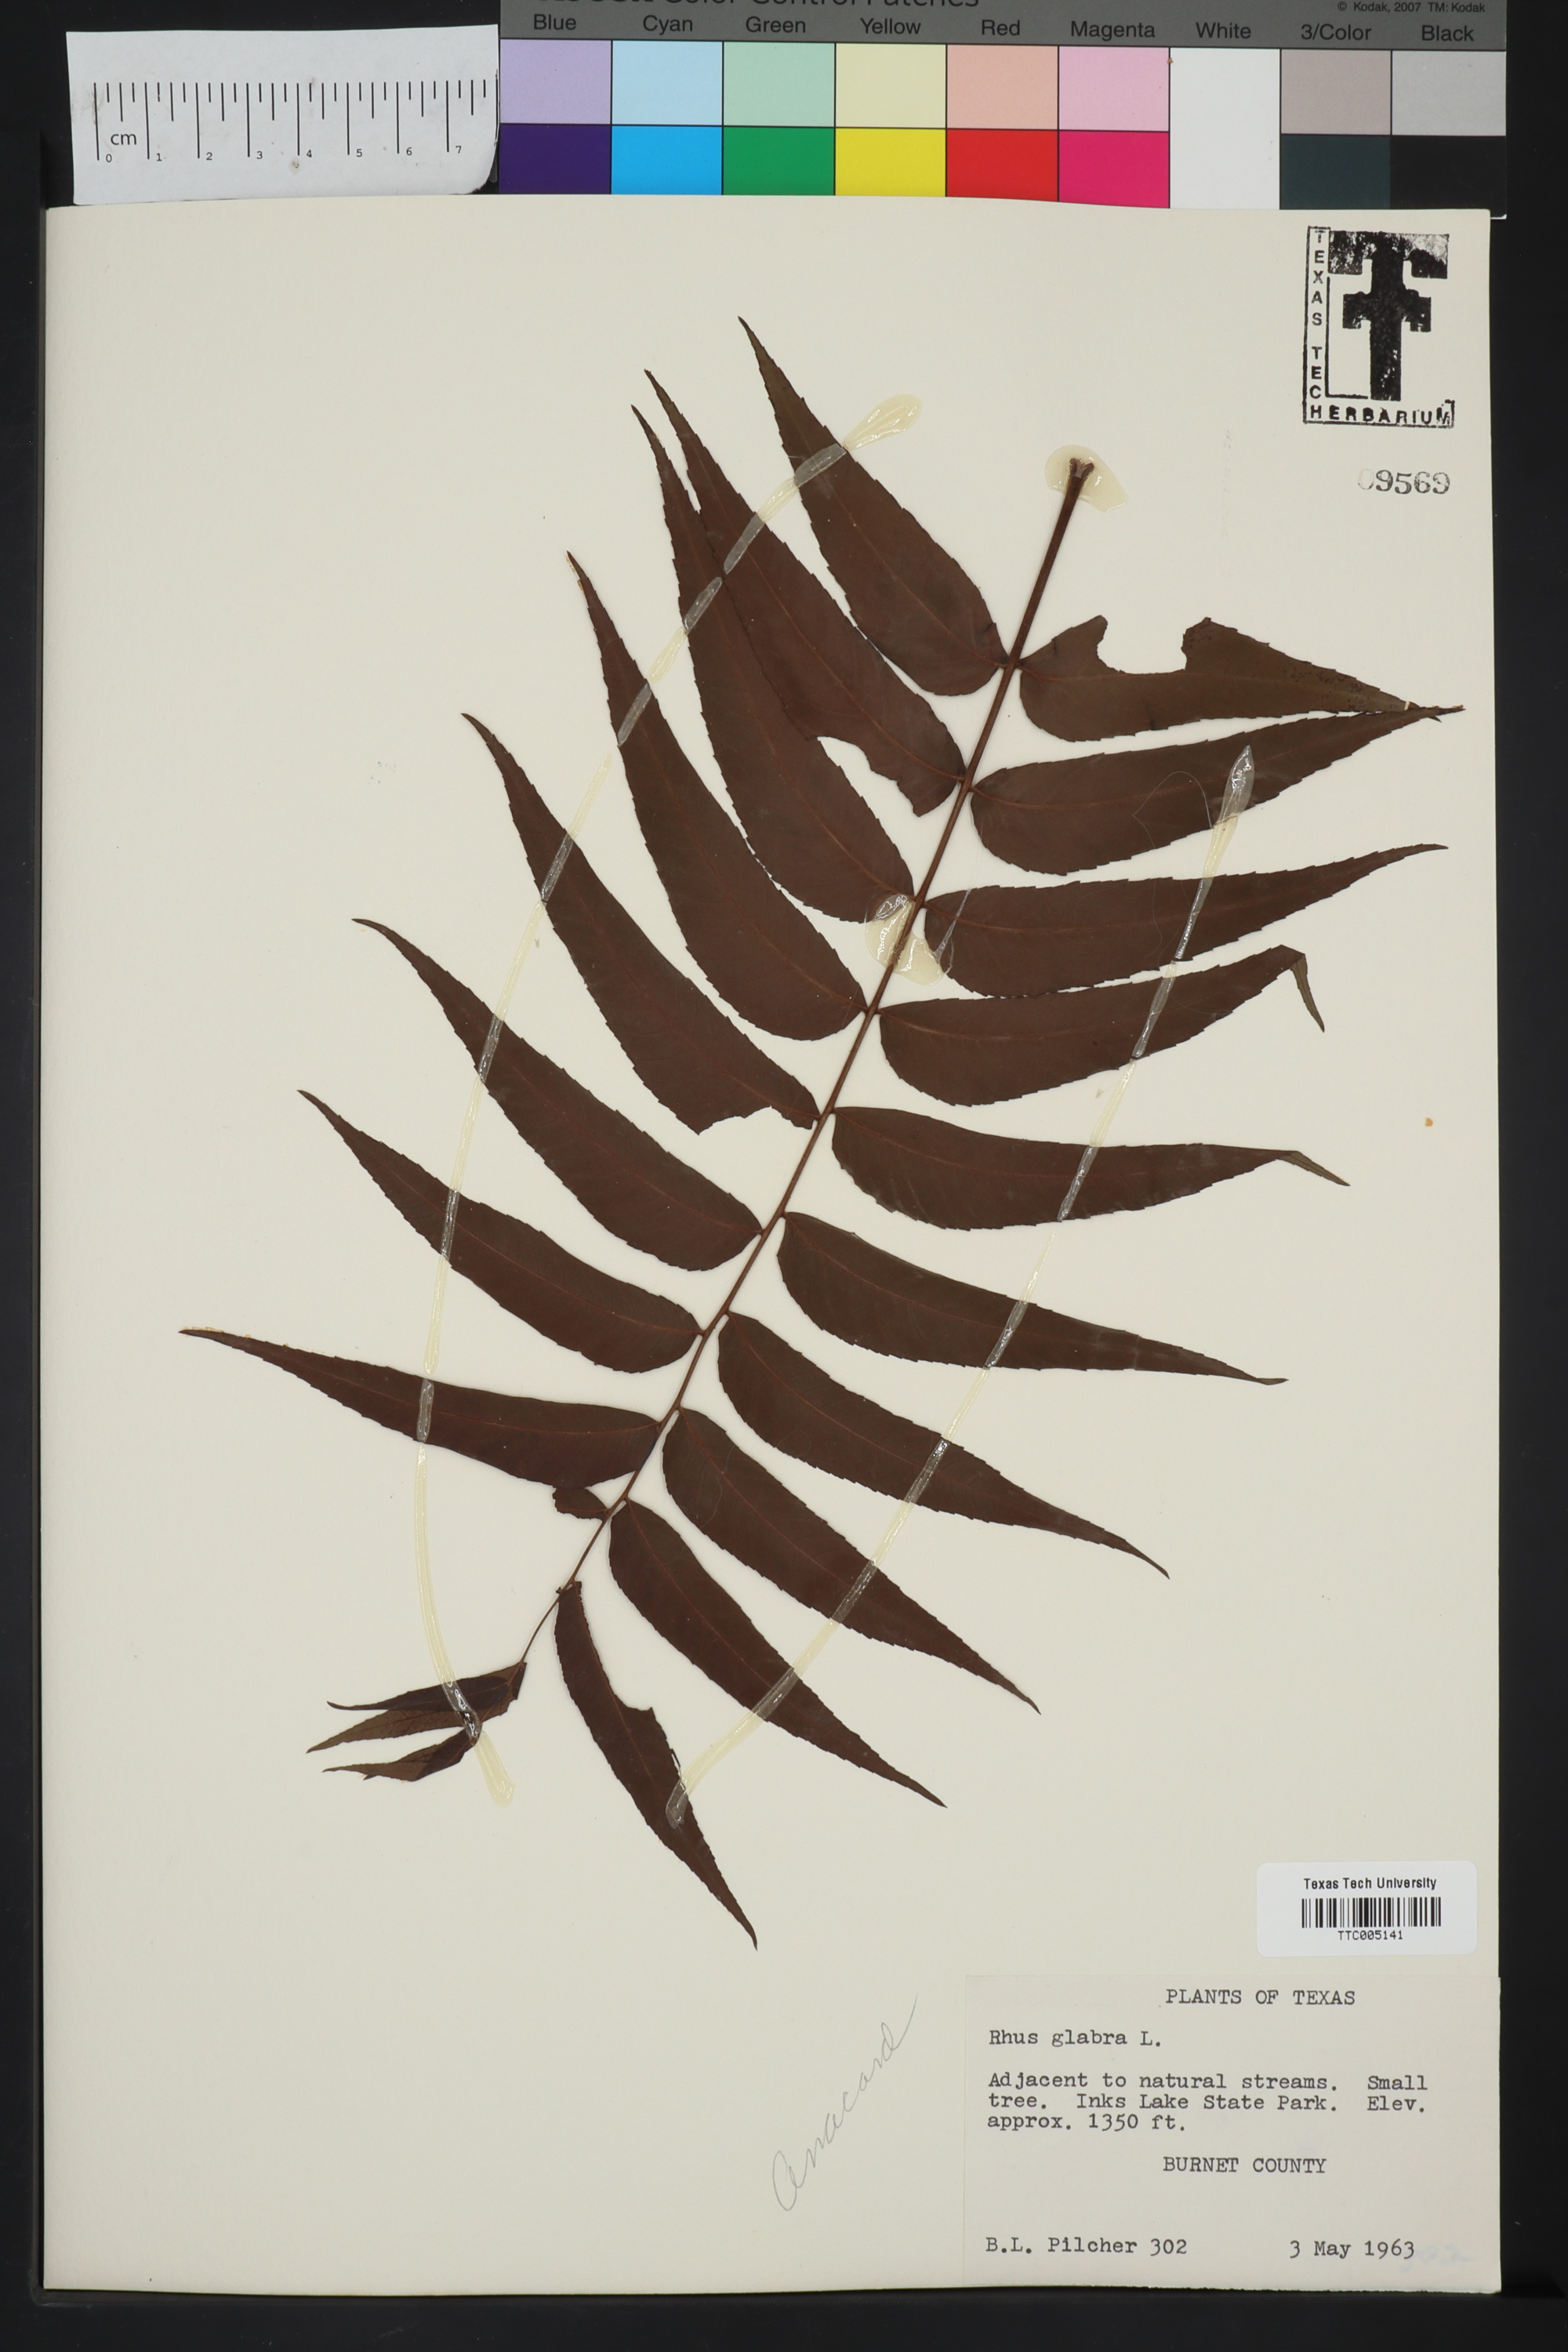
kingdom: Plantae
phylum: Tracheophyta
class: Magnoliopsida
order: Sapindales
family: Anacardiaceae
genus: Rhus
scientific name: Rhus glabra
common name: Scarlet sumac
